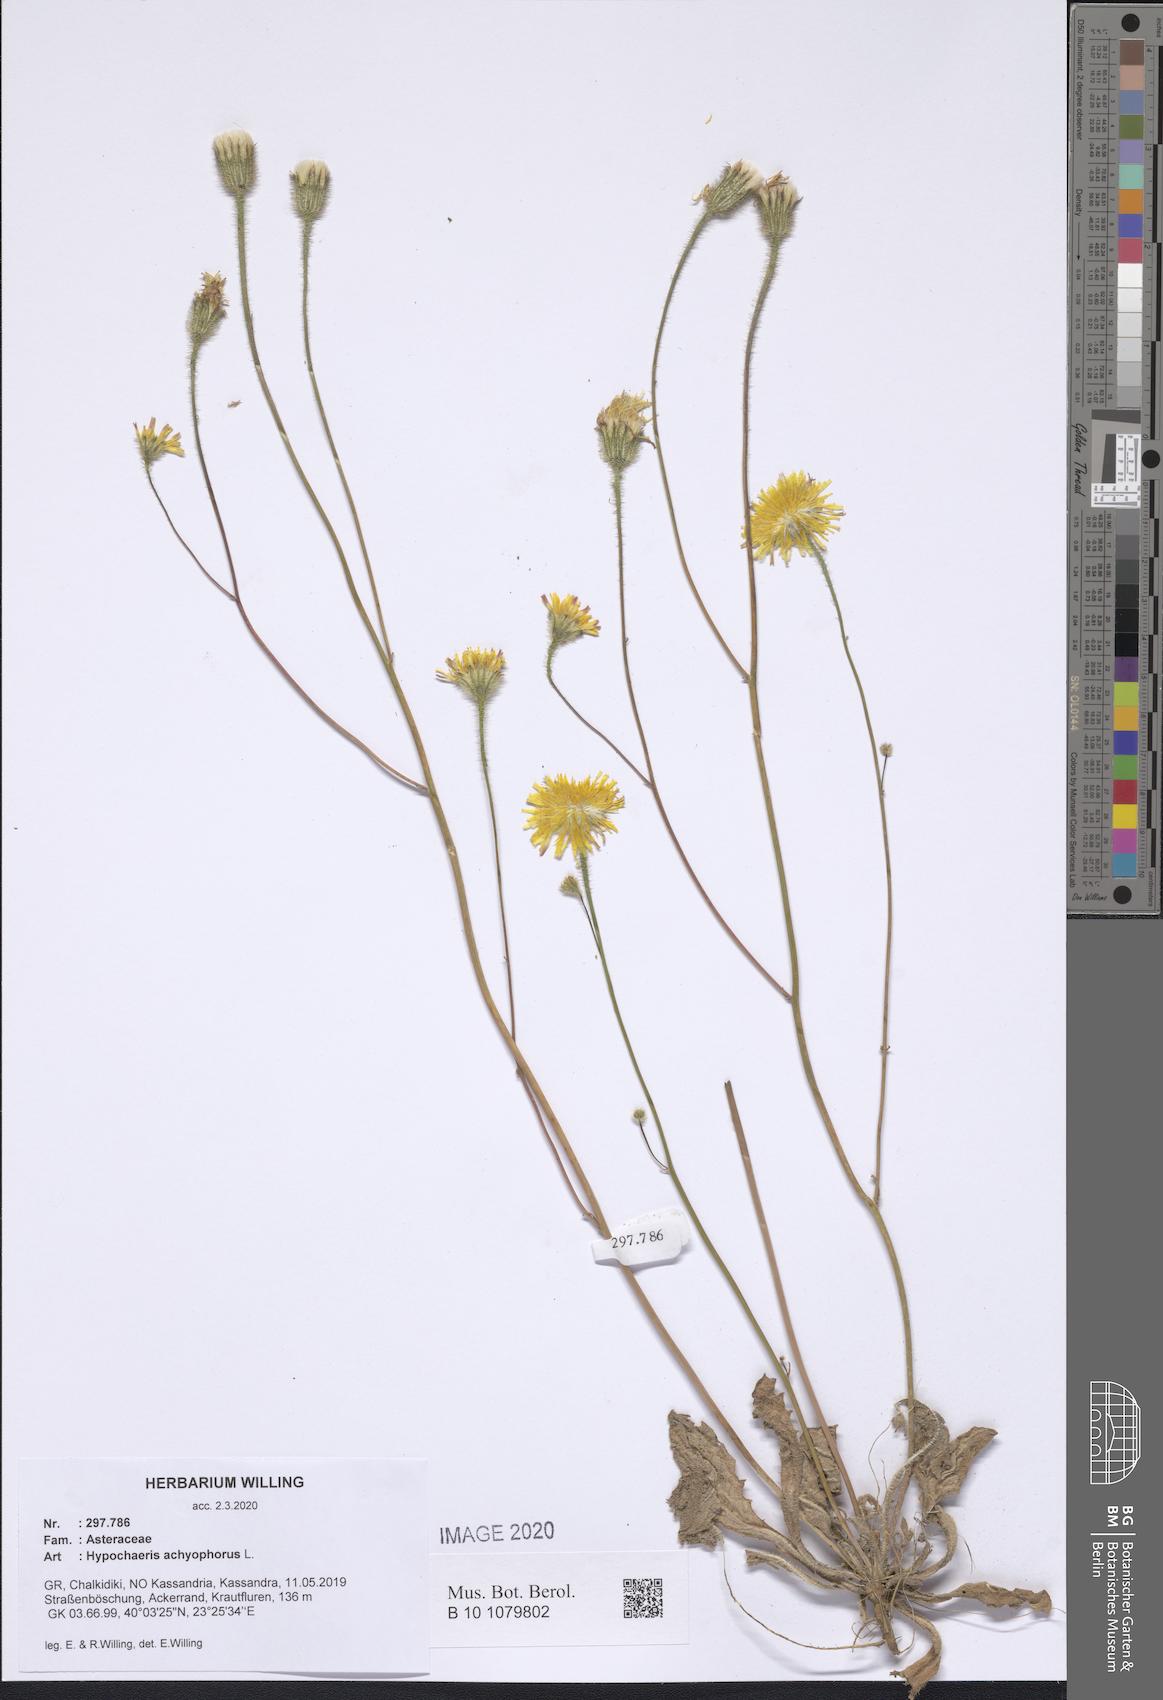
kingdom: Plantae
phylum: Tracheophyta
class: Magnoliopsida
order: Asterales
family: Asteraceae
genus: Achyrophorus
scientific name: Achyrophorus valdesii
